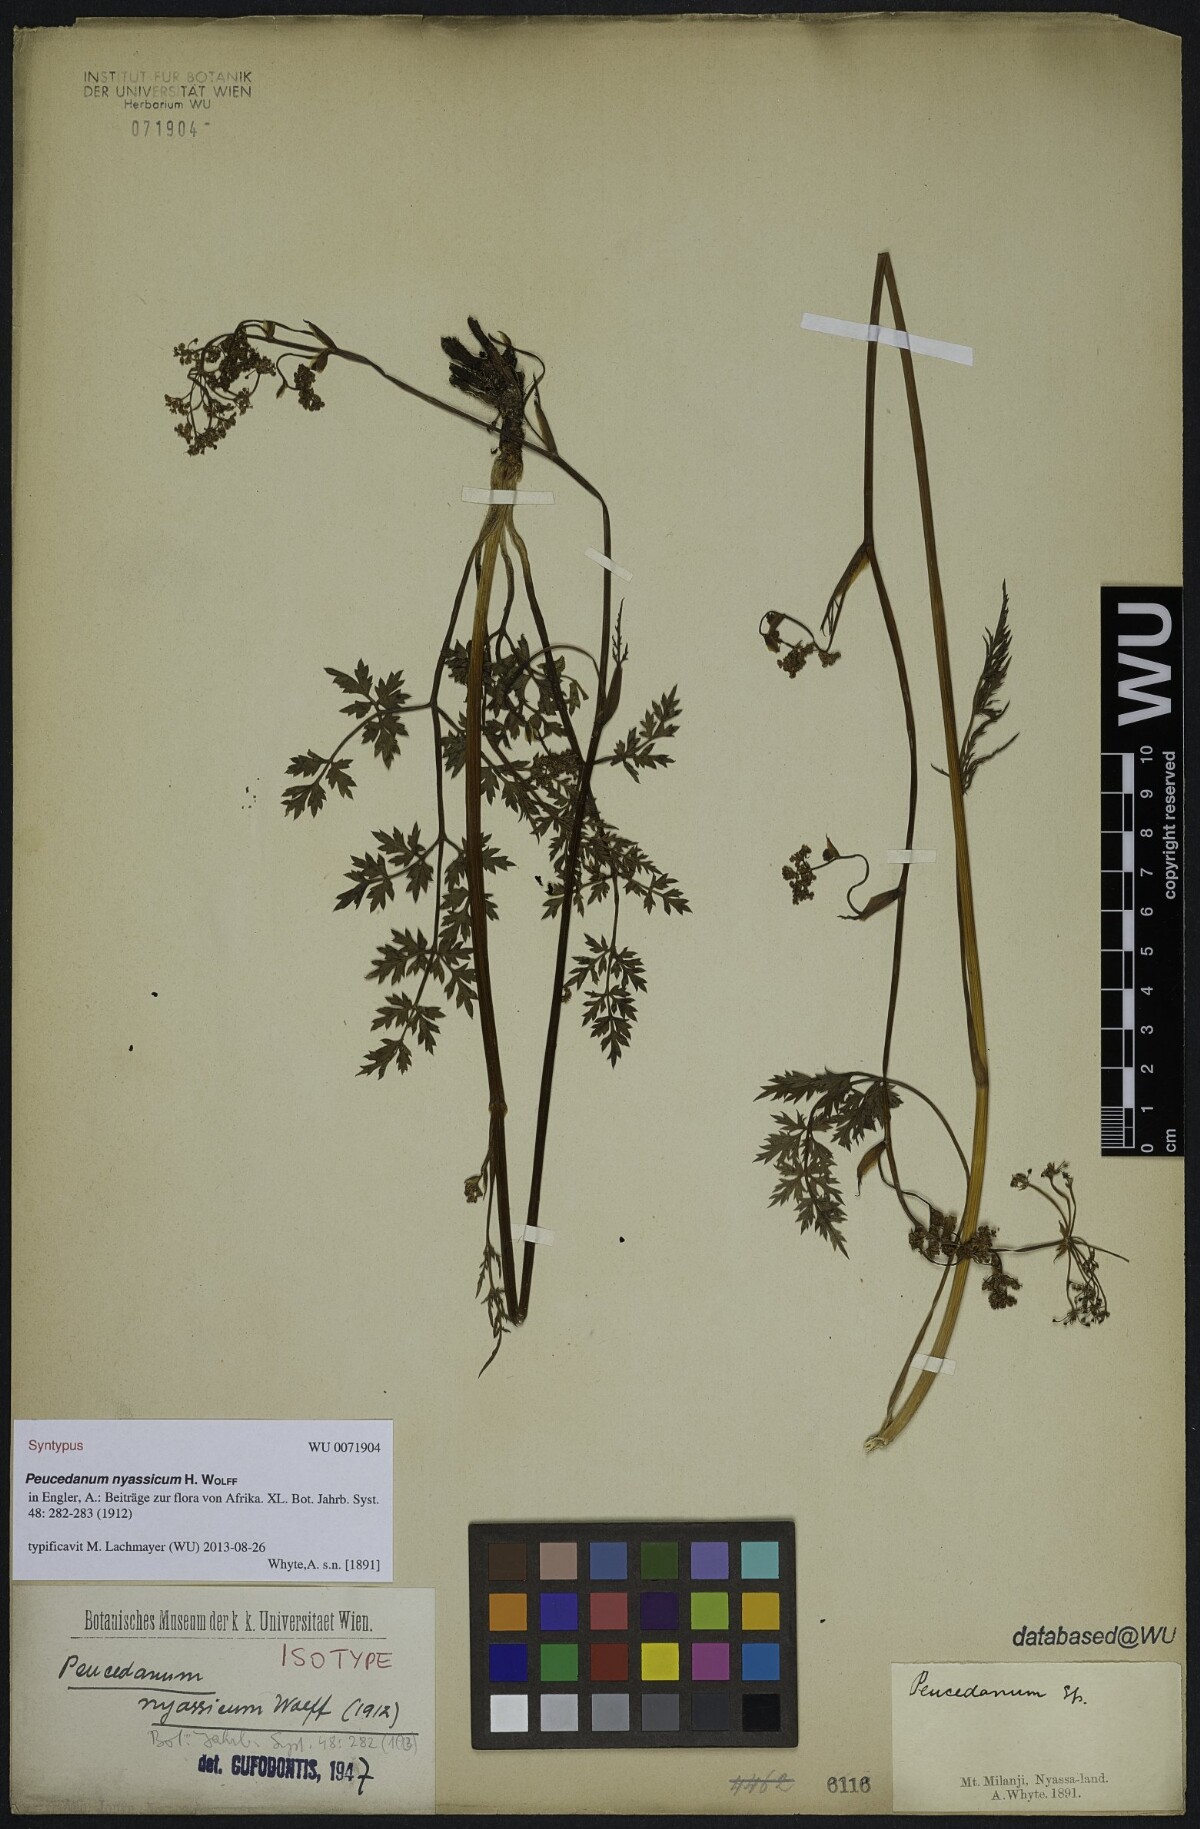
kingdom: Plantae
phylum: Tracheophyta
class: Magnoliopsida
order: Apiales
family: Apiaceae
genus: Afrosciadium
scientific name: Afrosciadium nyassicum
